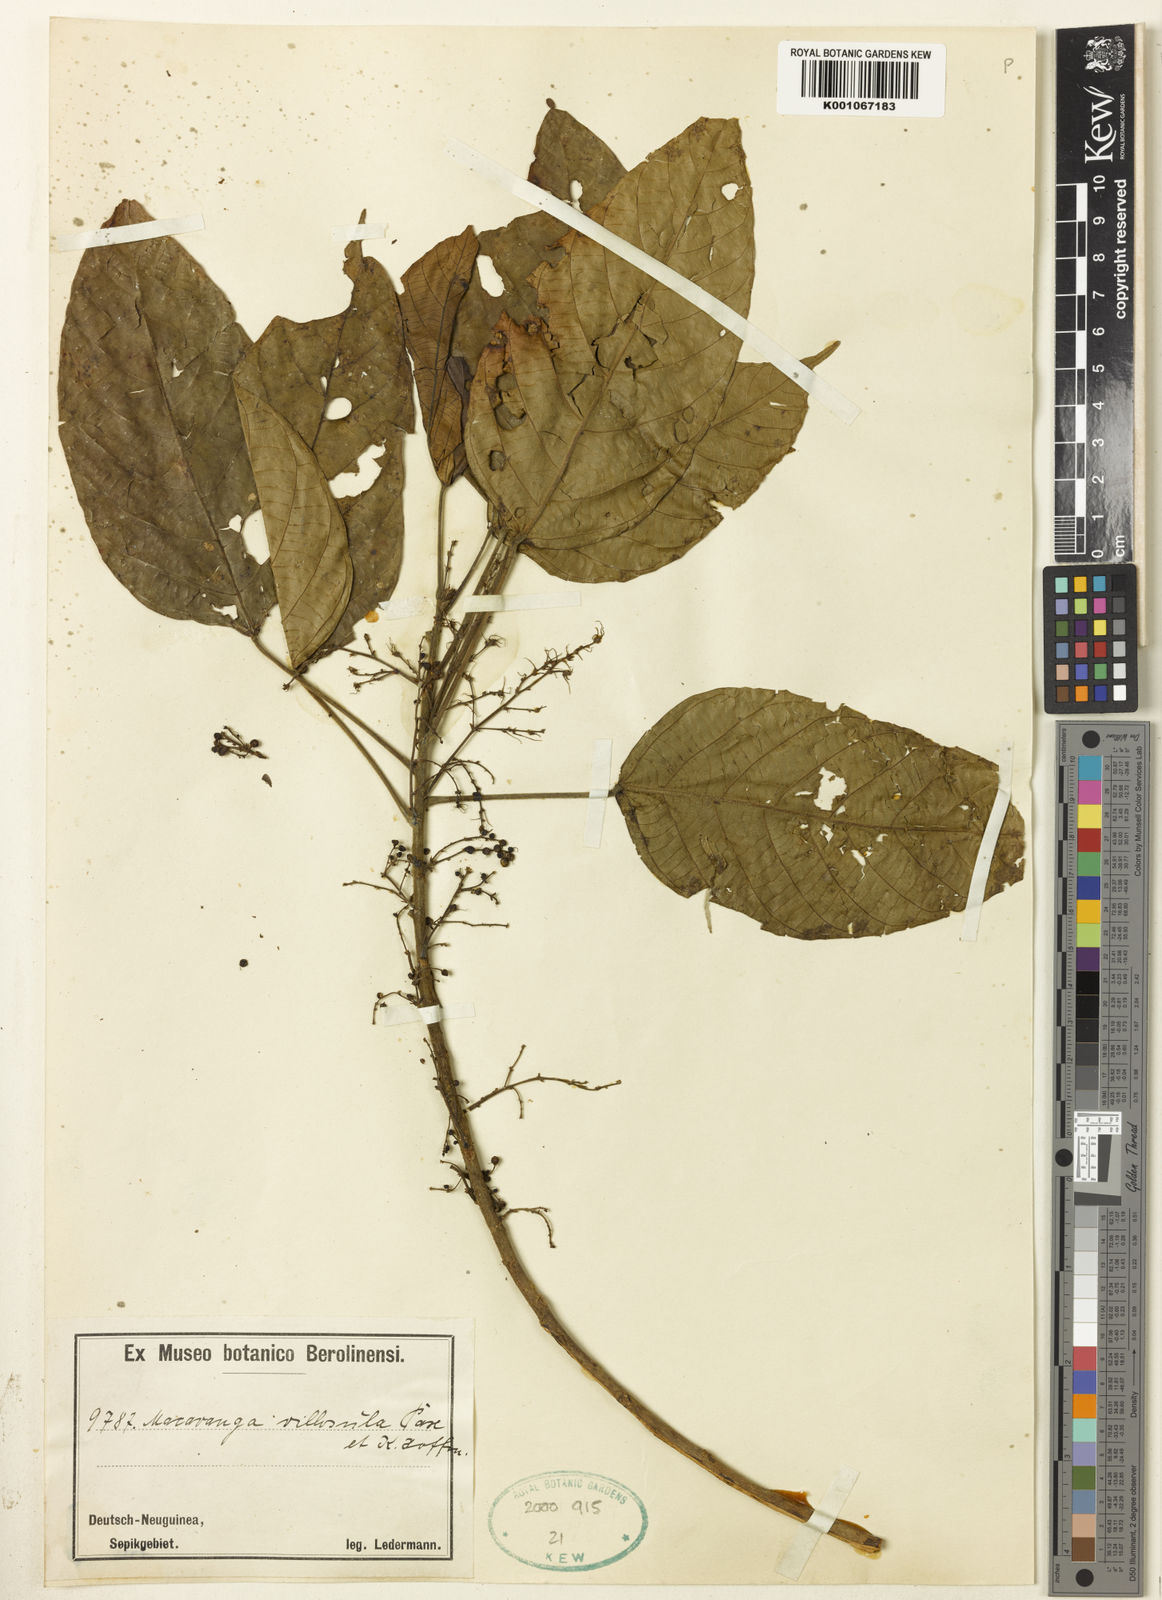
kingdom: Plantae
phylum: Tracheophyta
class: Magnoliopsida
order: Malpighiales
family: Euphorbiaceae
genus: Macaranga
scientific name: Macaranga villosula
